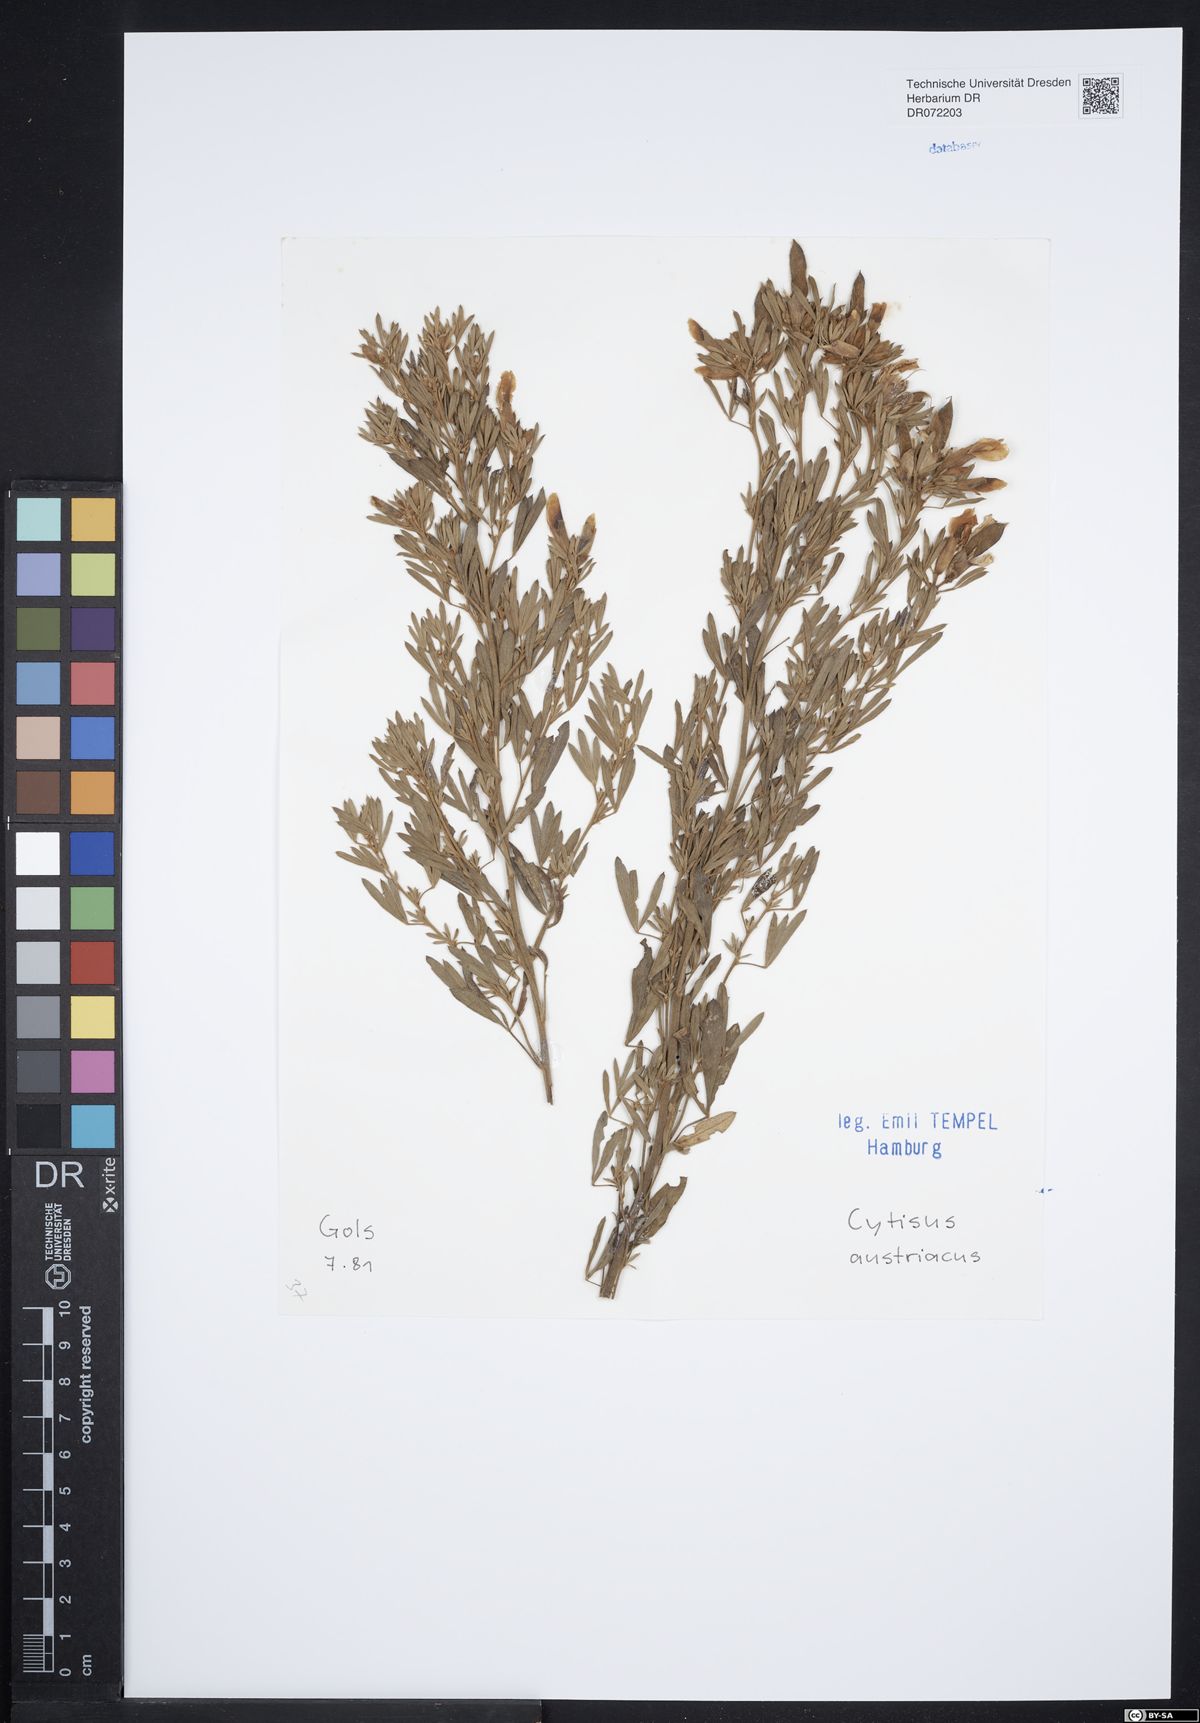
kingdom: Plantae
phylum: Tracheophyta
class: Magnoliopsida
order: Fabales
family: Fabaceae
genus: Chamaecytisus
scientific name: Chamaecytisus austriacus
